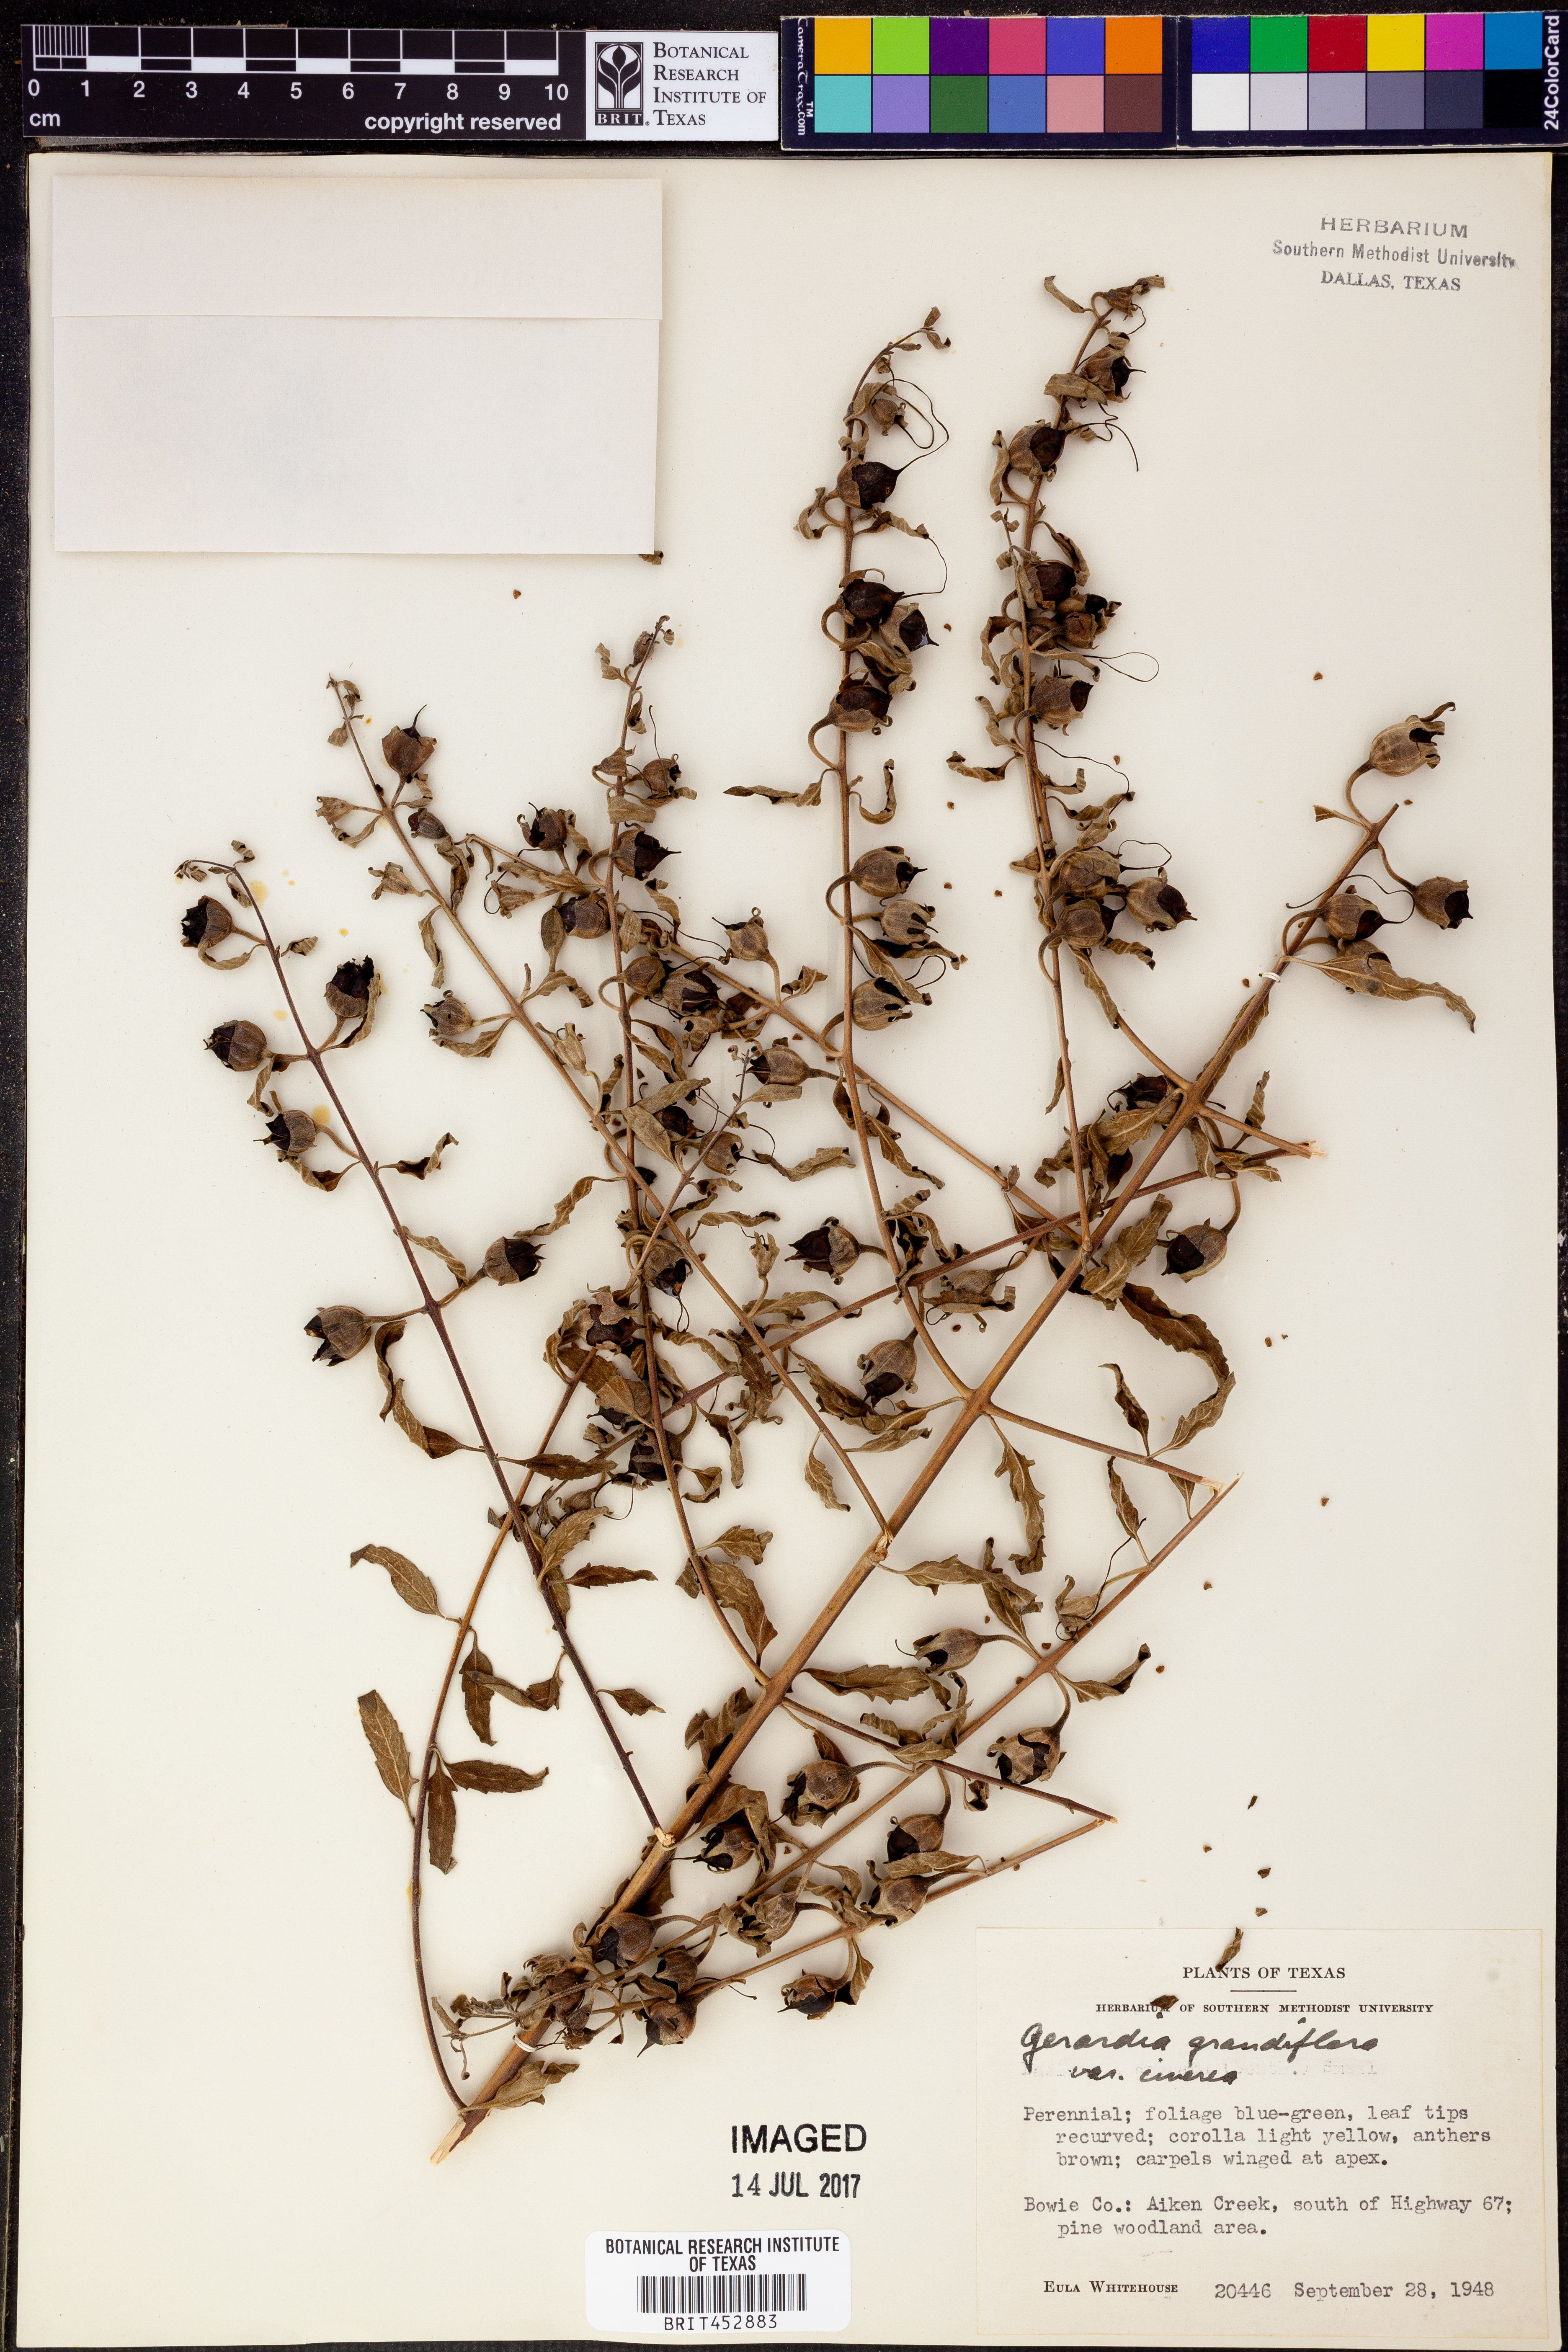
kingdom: Plantae
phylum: Tracheophyta
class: Magnoliopsida
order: Lamiales
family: Orobanchaceae
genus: Aureolaria
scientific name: Aureolaria grandiflora
